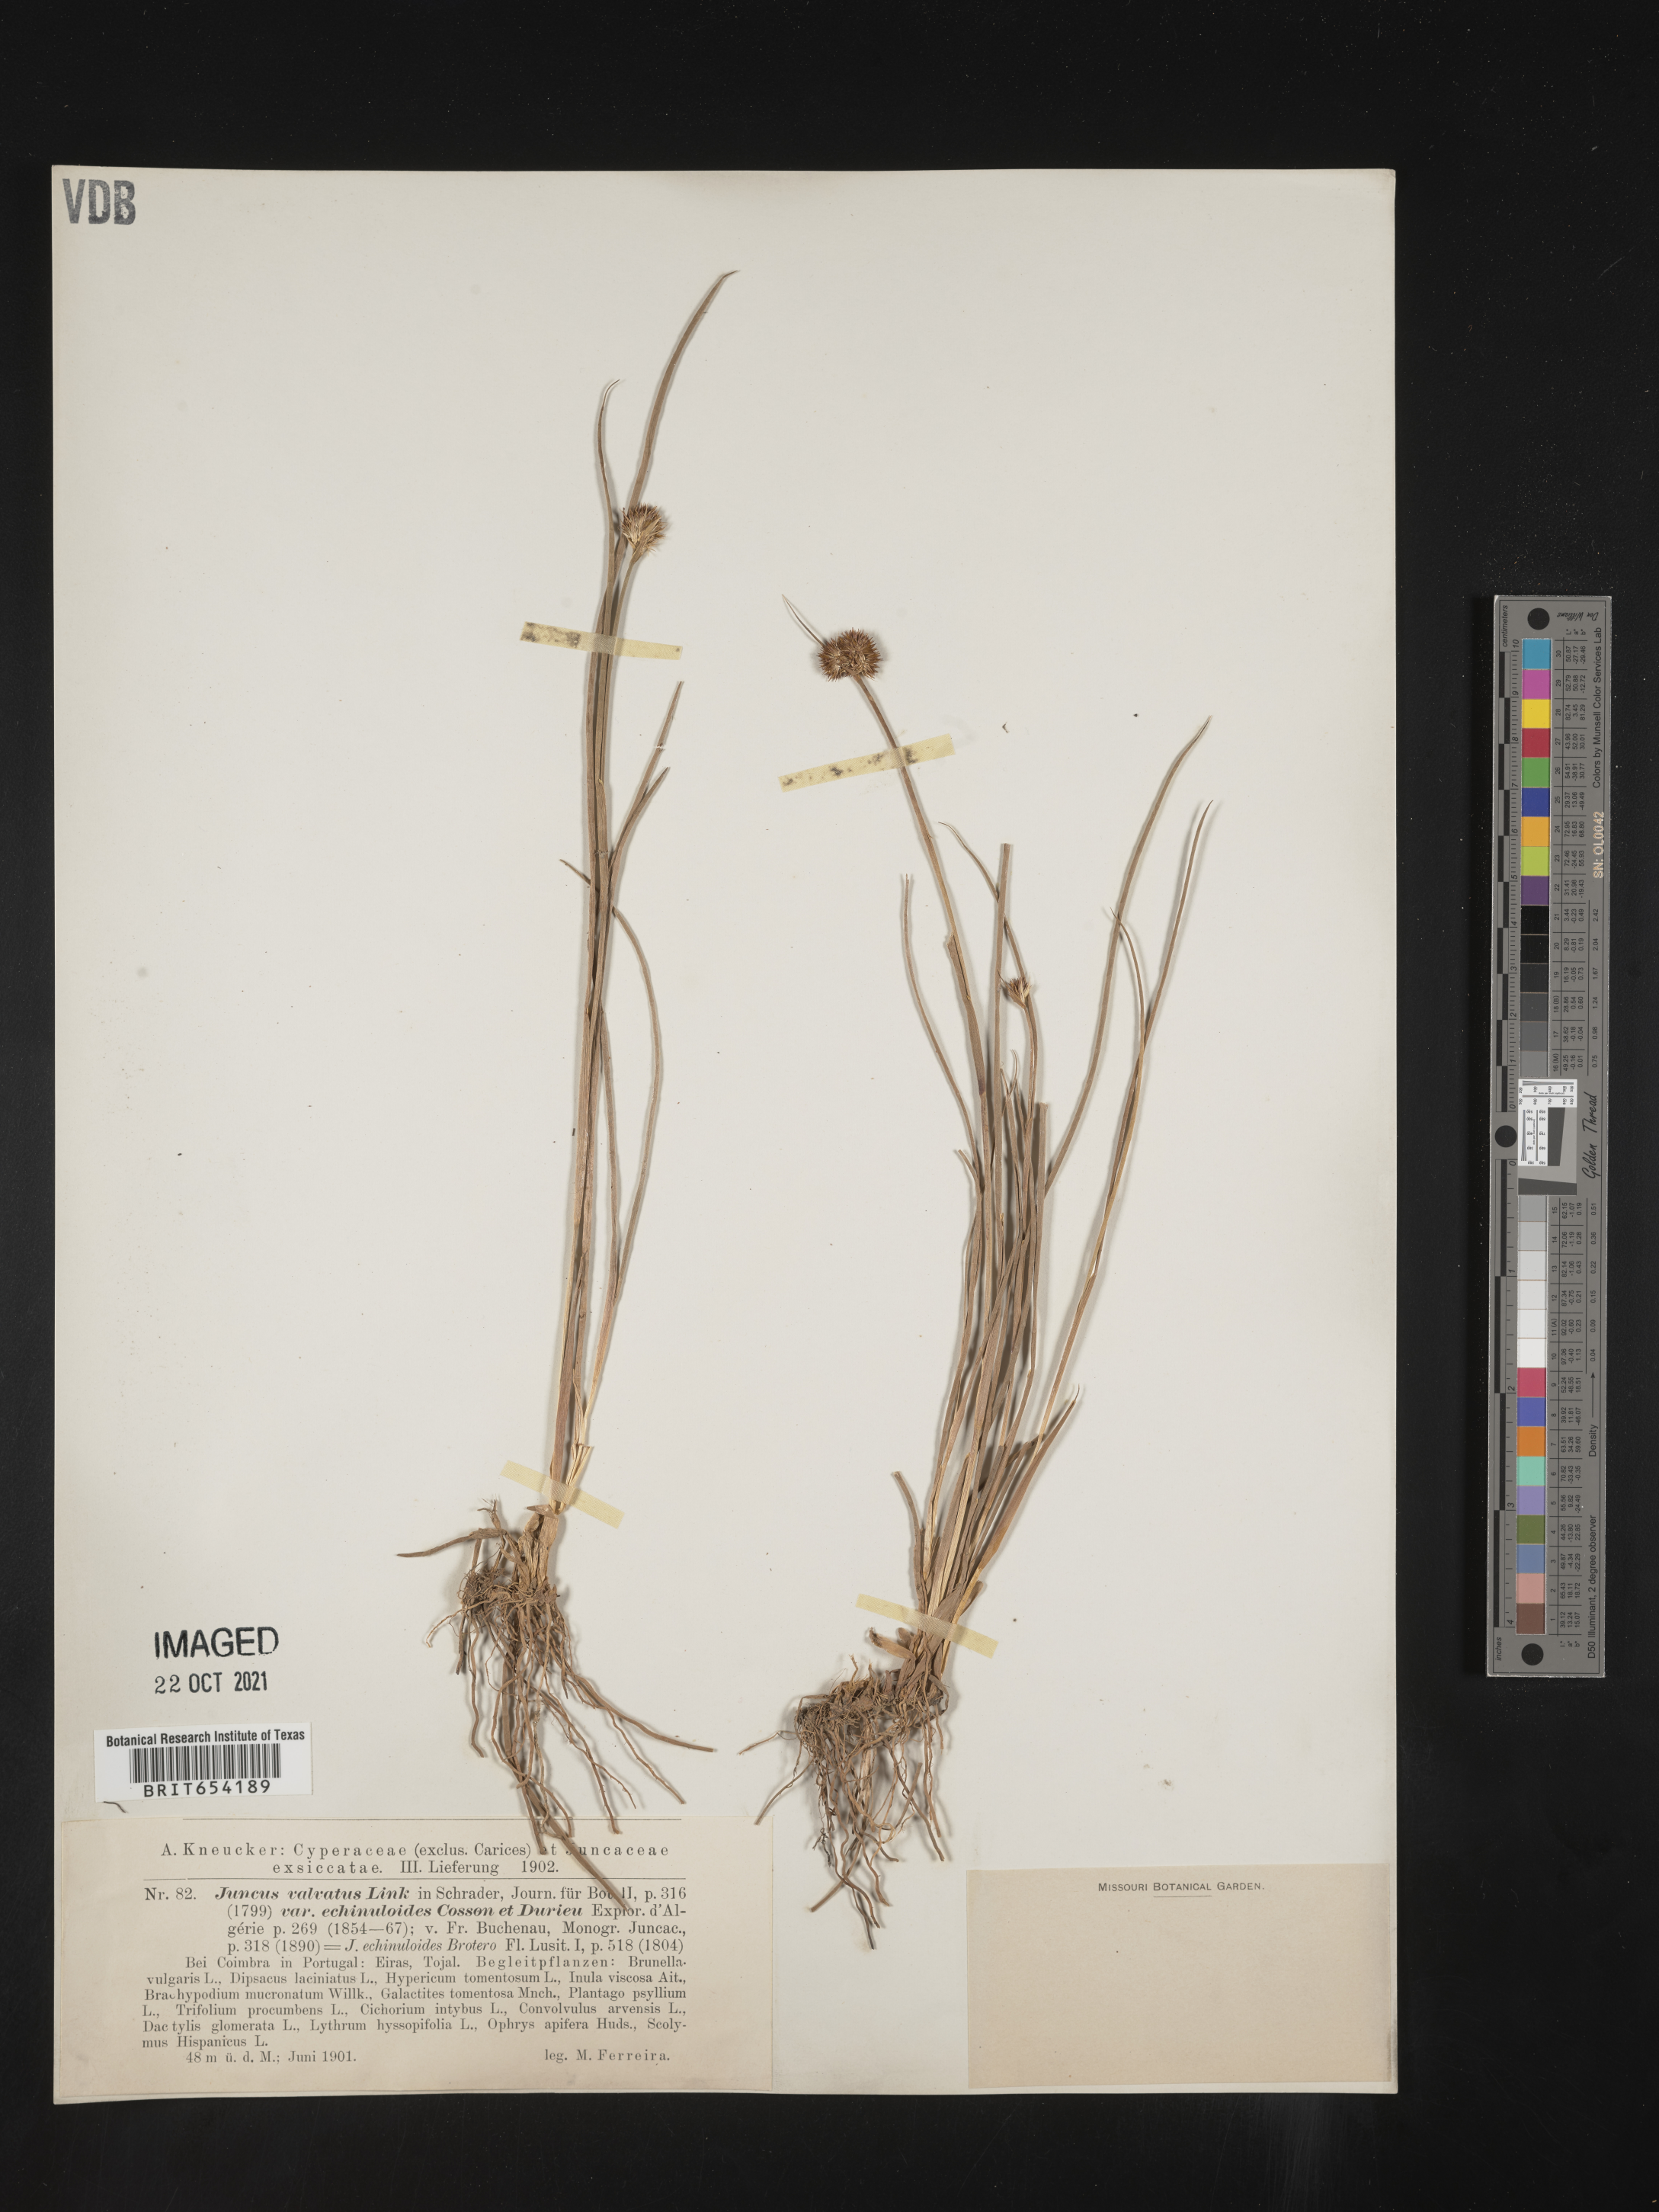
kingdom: Plantae
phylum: Tracheophyta
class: Liliopsida
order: Poales
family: Juncaceae
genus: Juncus
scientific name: Juncus
